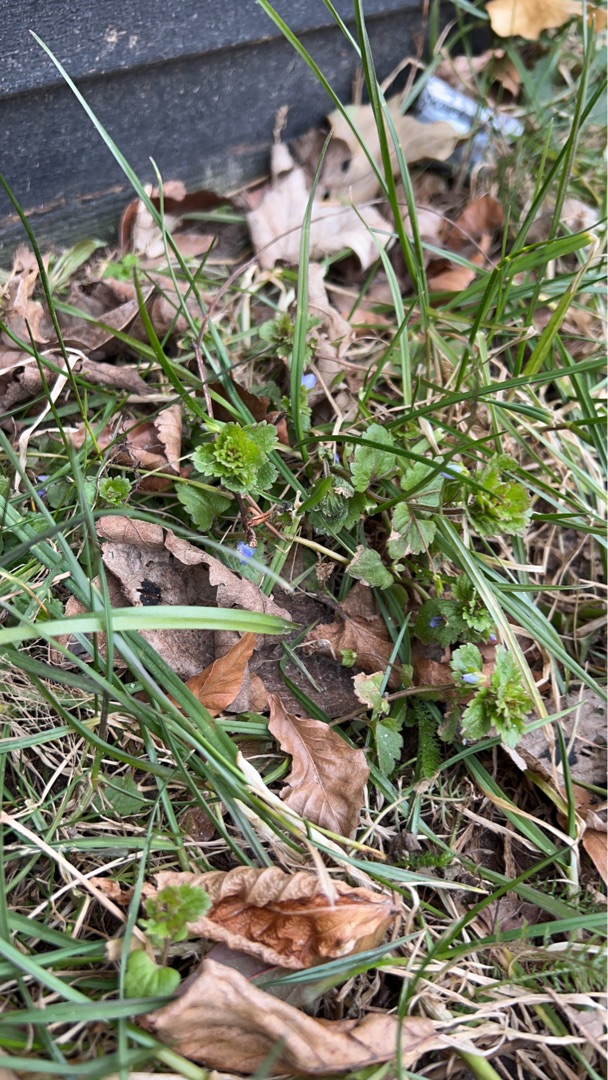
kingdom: Plantae
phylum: Tracheophyta
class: Magnoliopsida
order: Lamiales
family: Plantaginaceae
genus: Veronica
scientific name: Veronica persica
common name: Storkronet ærenpris
